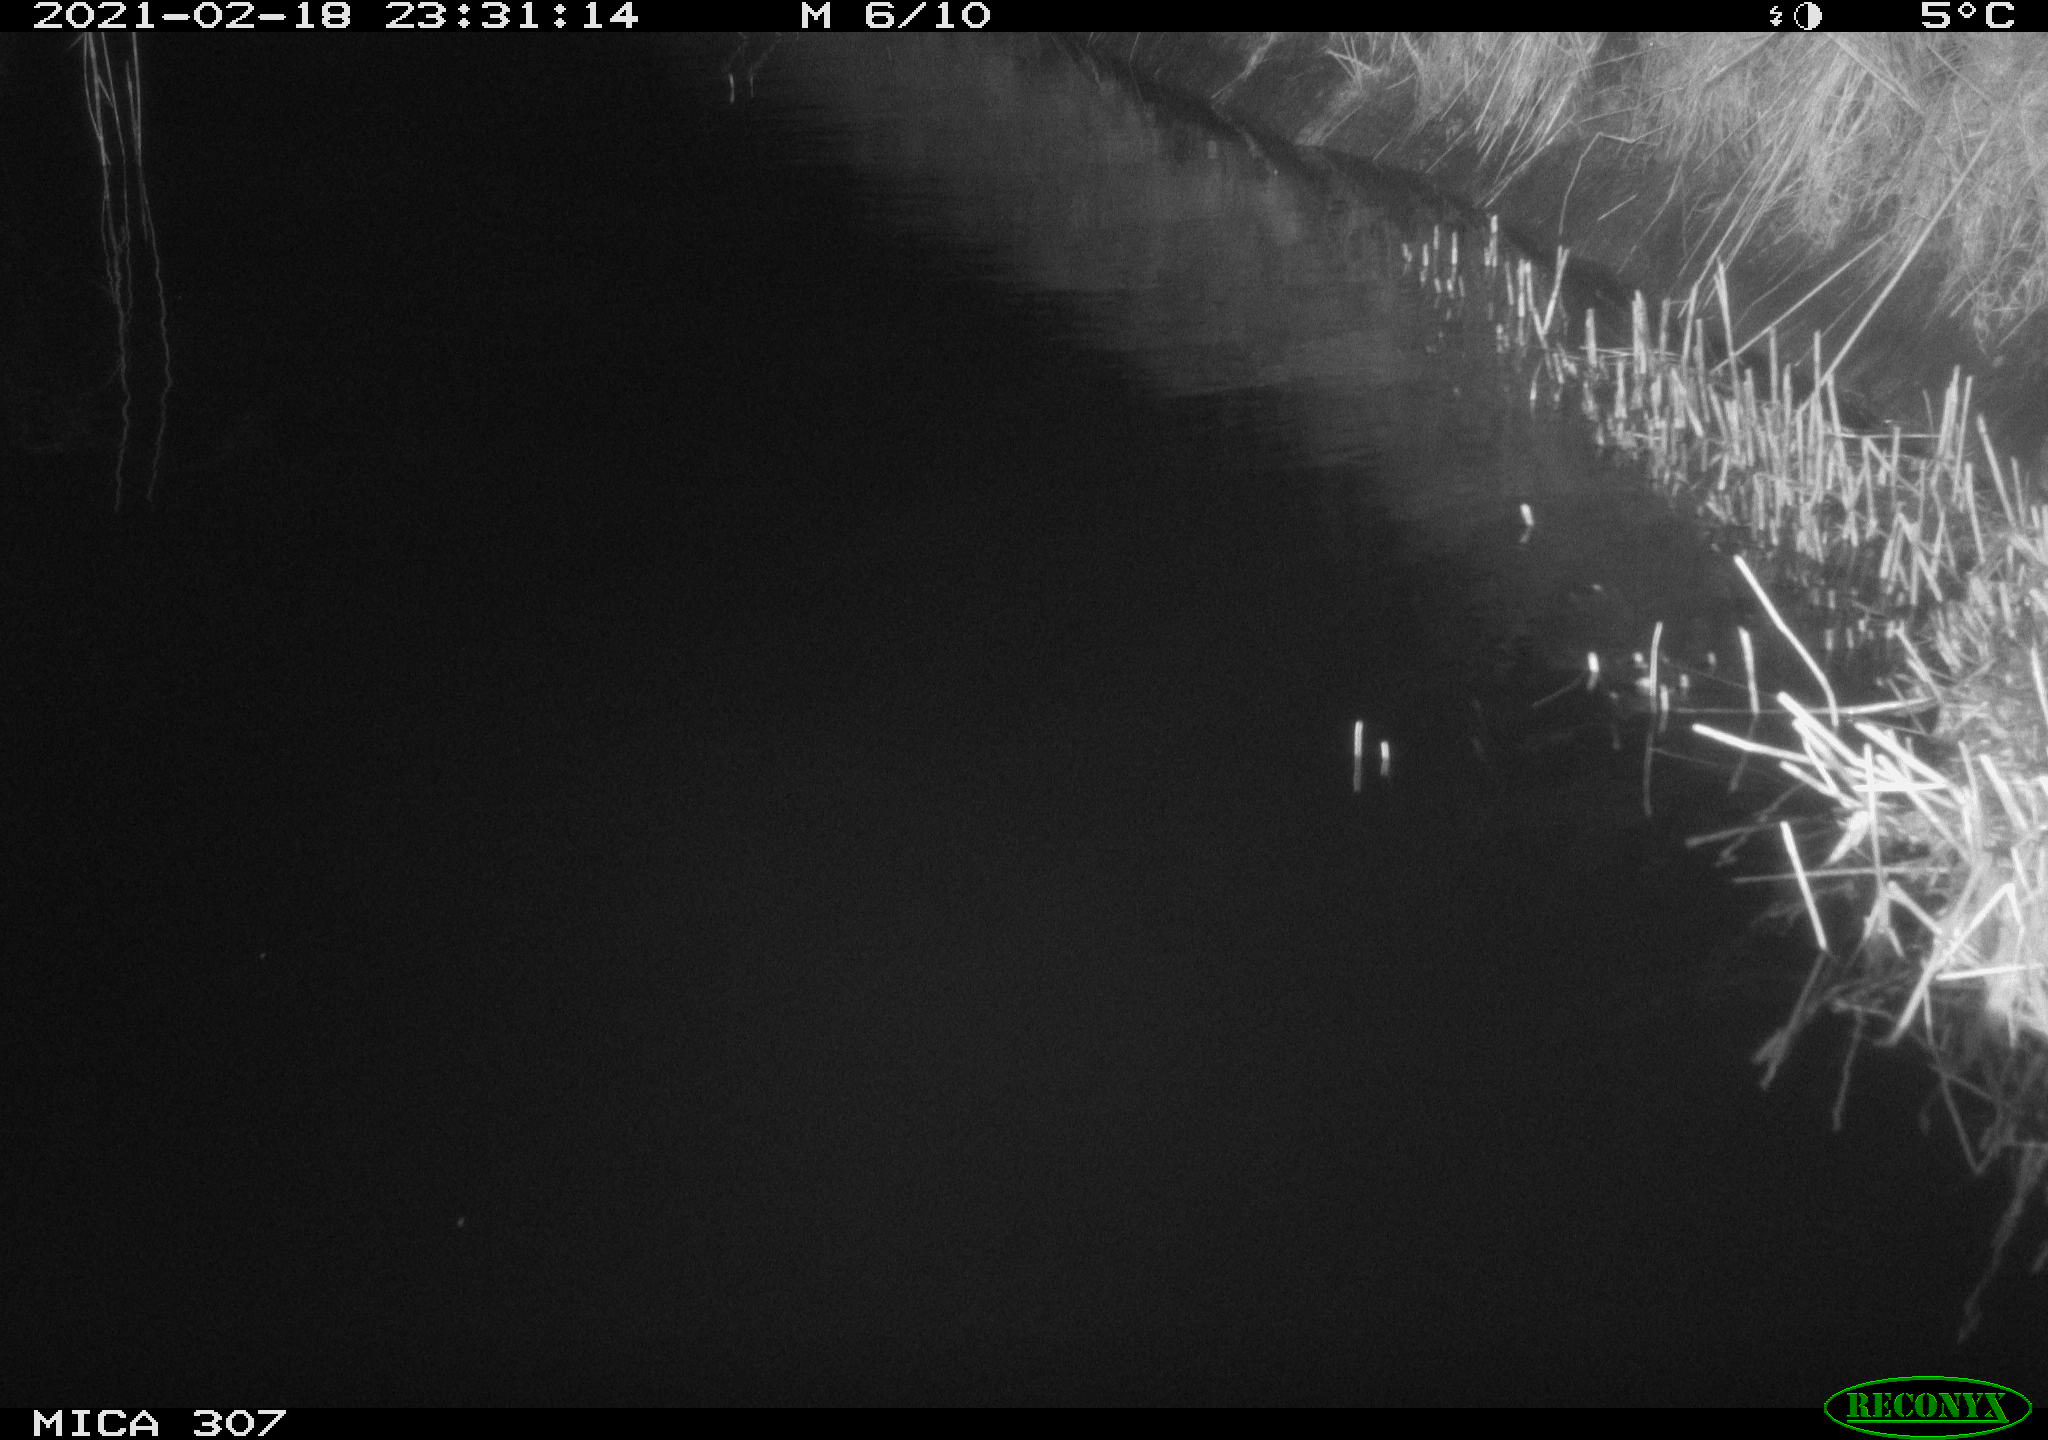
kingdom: Animalia
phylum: Chordata
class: Mammalia
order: Rodentia
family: Muridae
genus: Rattus
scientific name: Rattus norvegicus
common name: Brown rat
